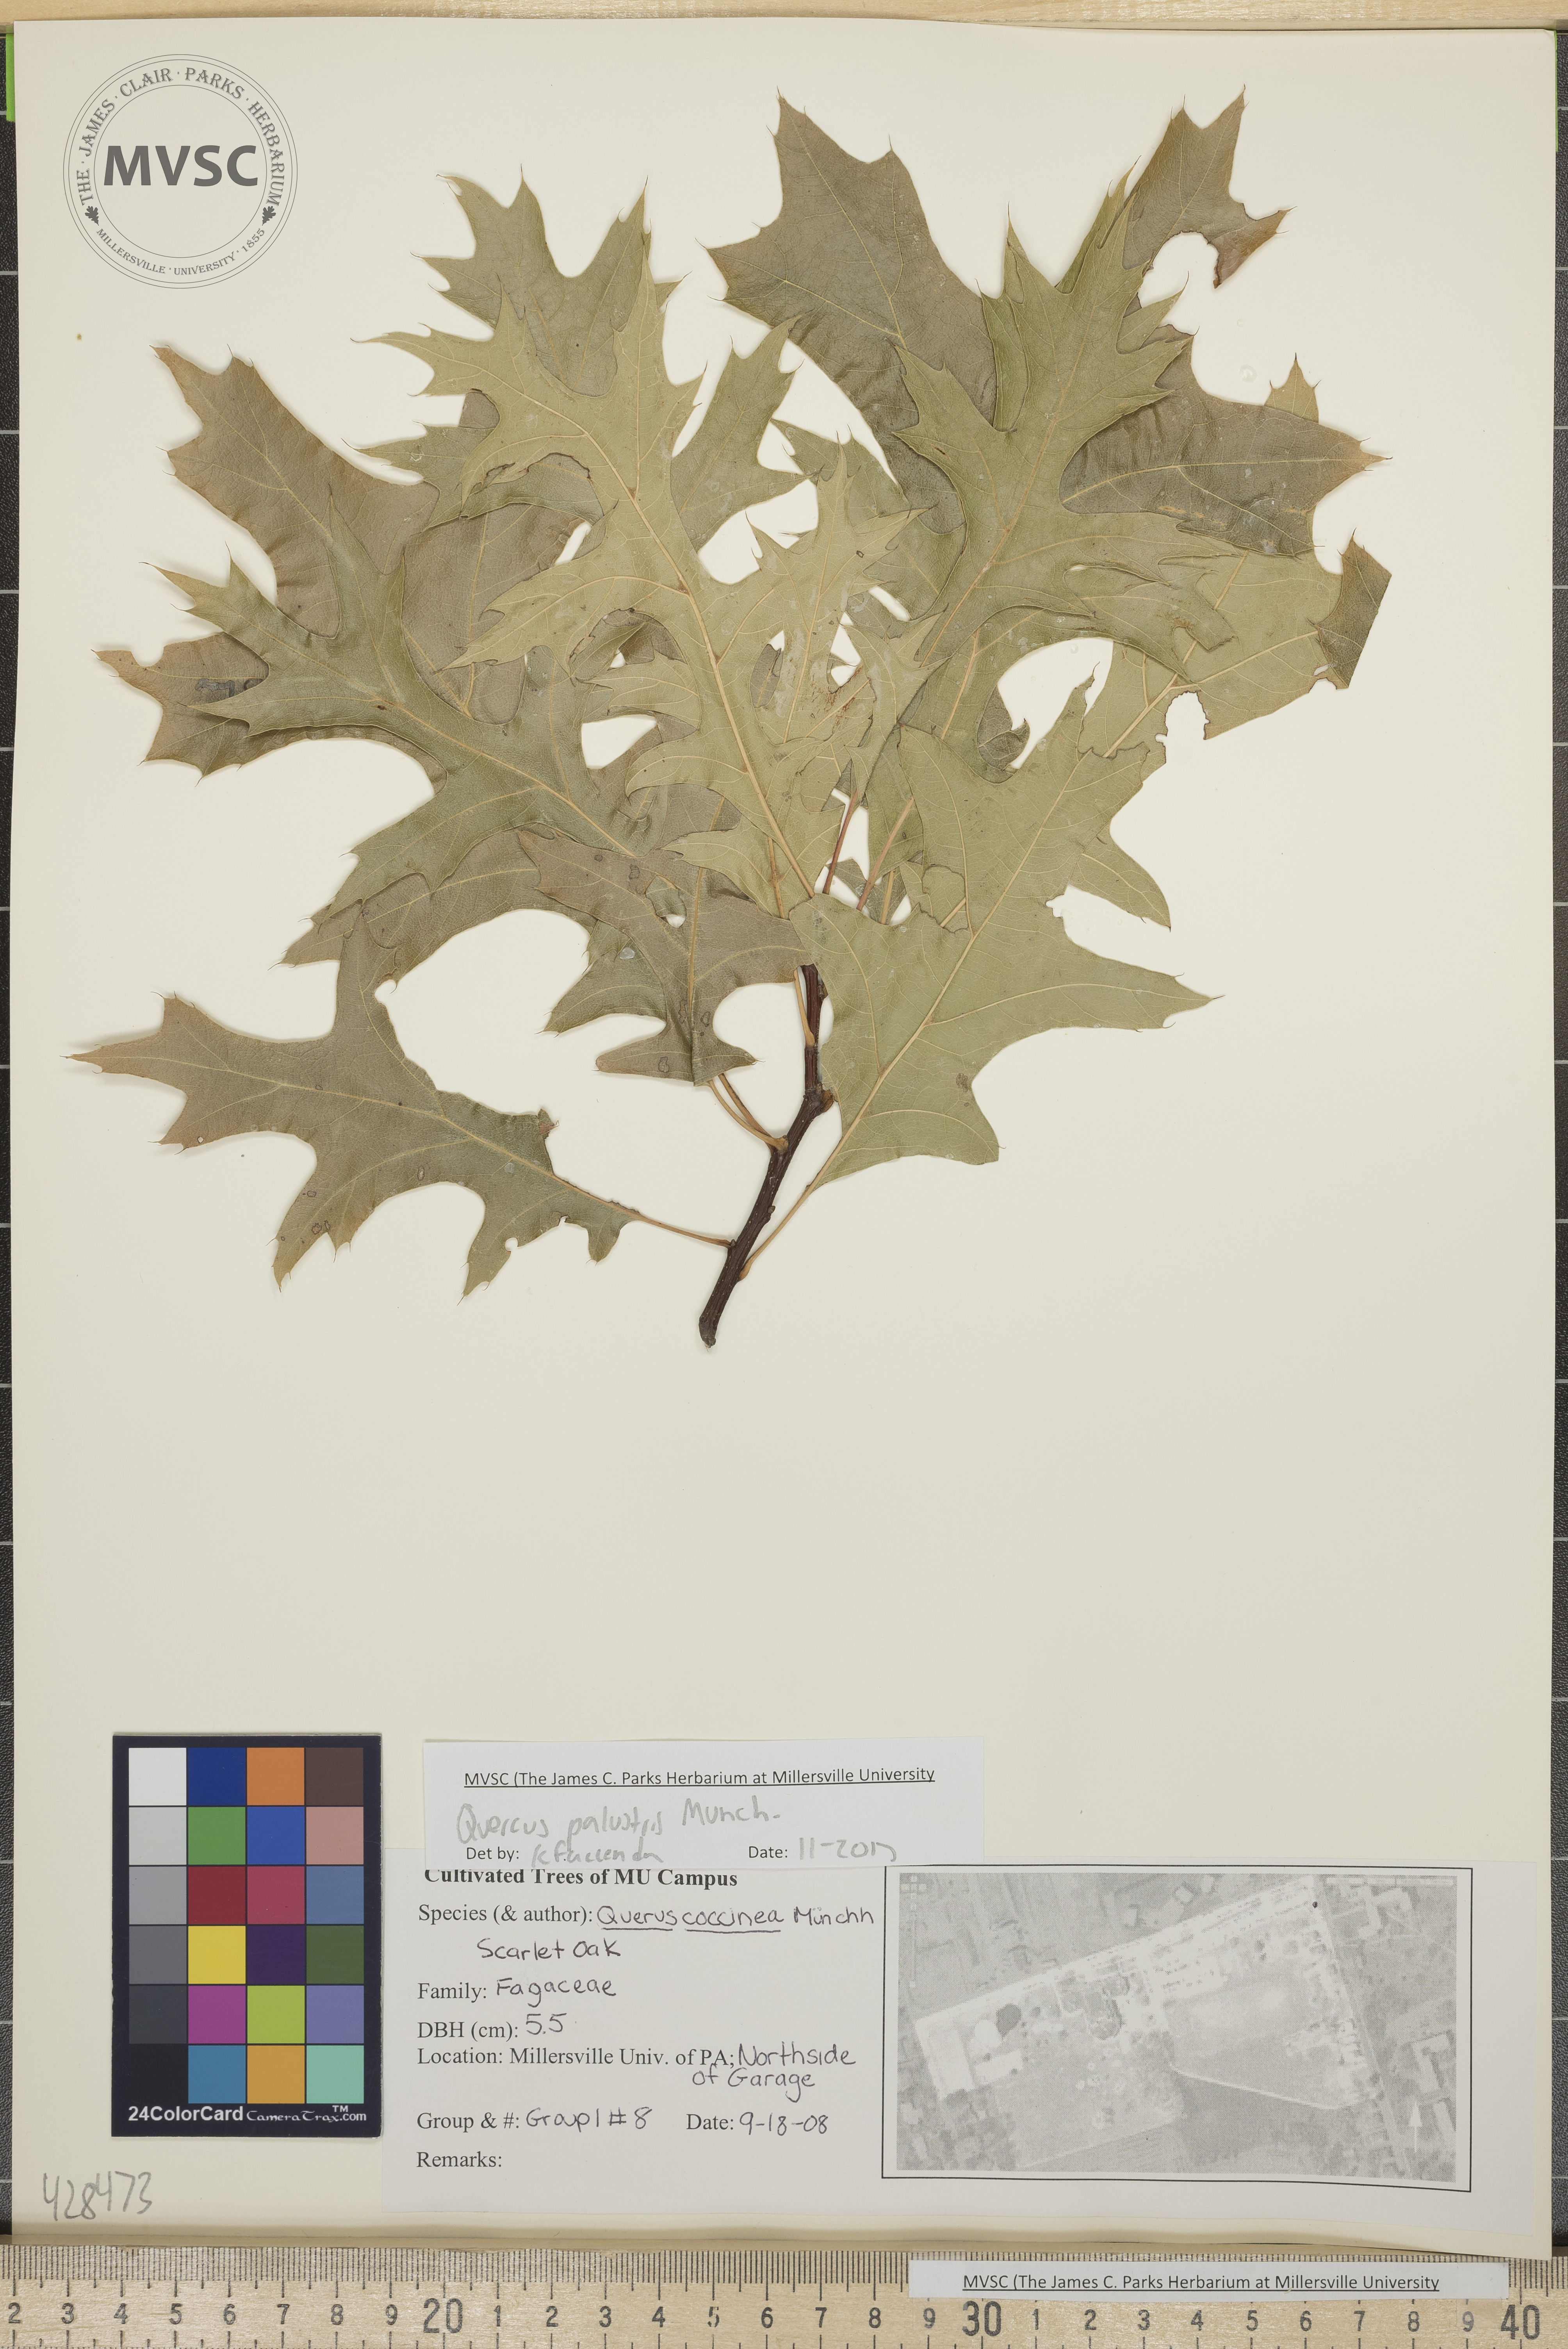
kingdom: Plantae
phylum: Tracheophyta
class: Magnoliopsida
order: Fagales
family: Fagaceae
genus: Quercus
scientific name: Quercus palustris
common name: Pin oak
